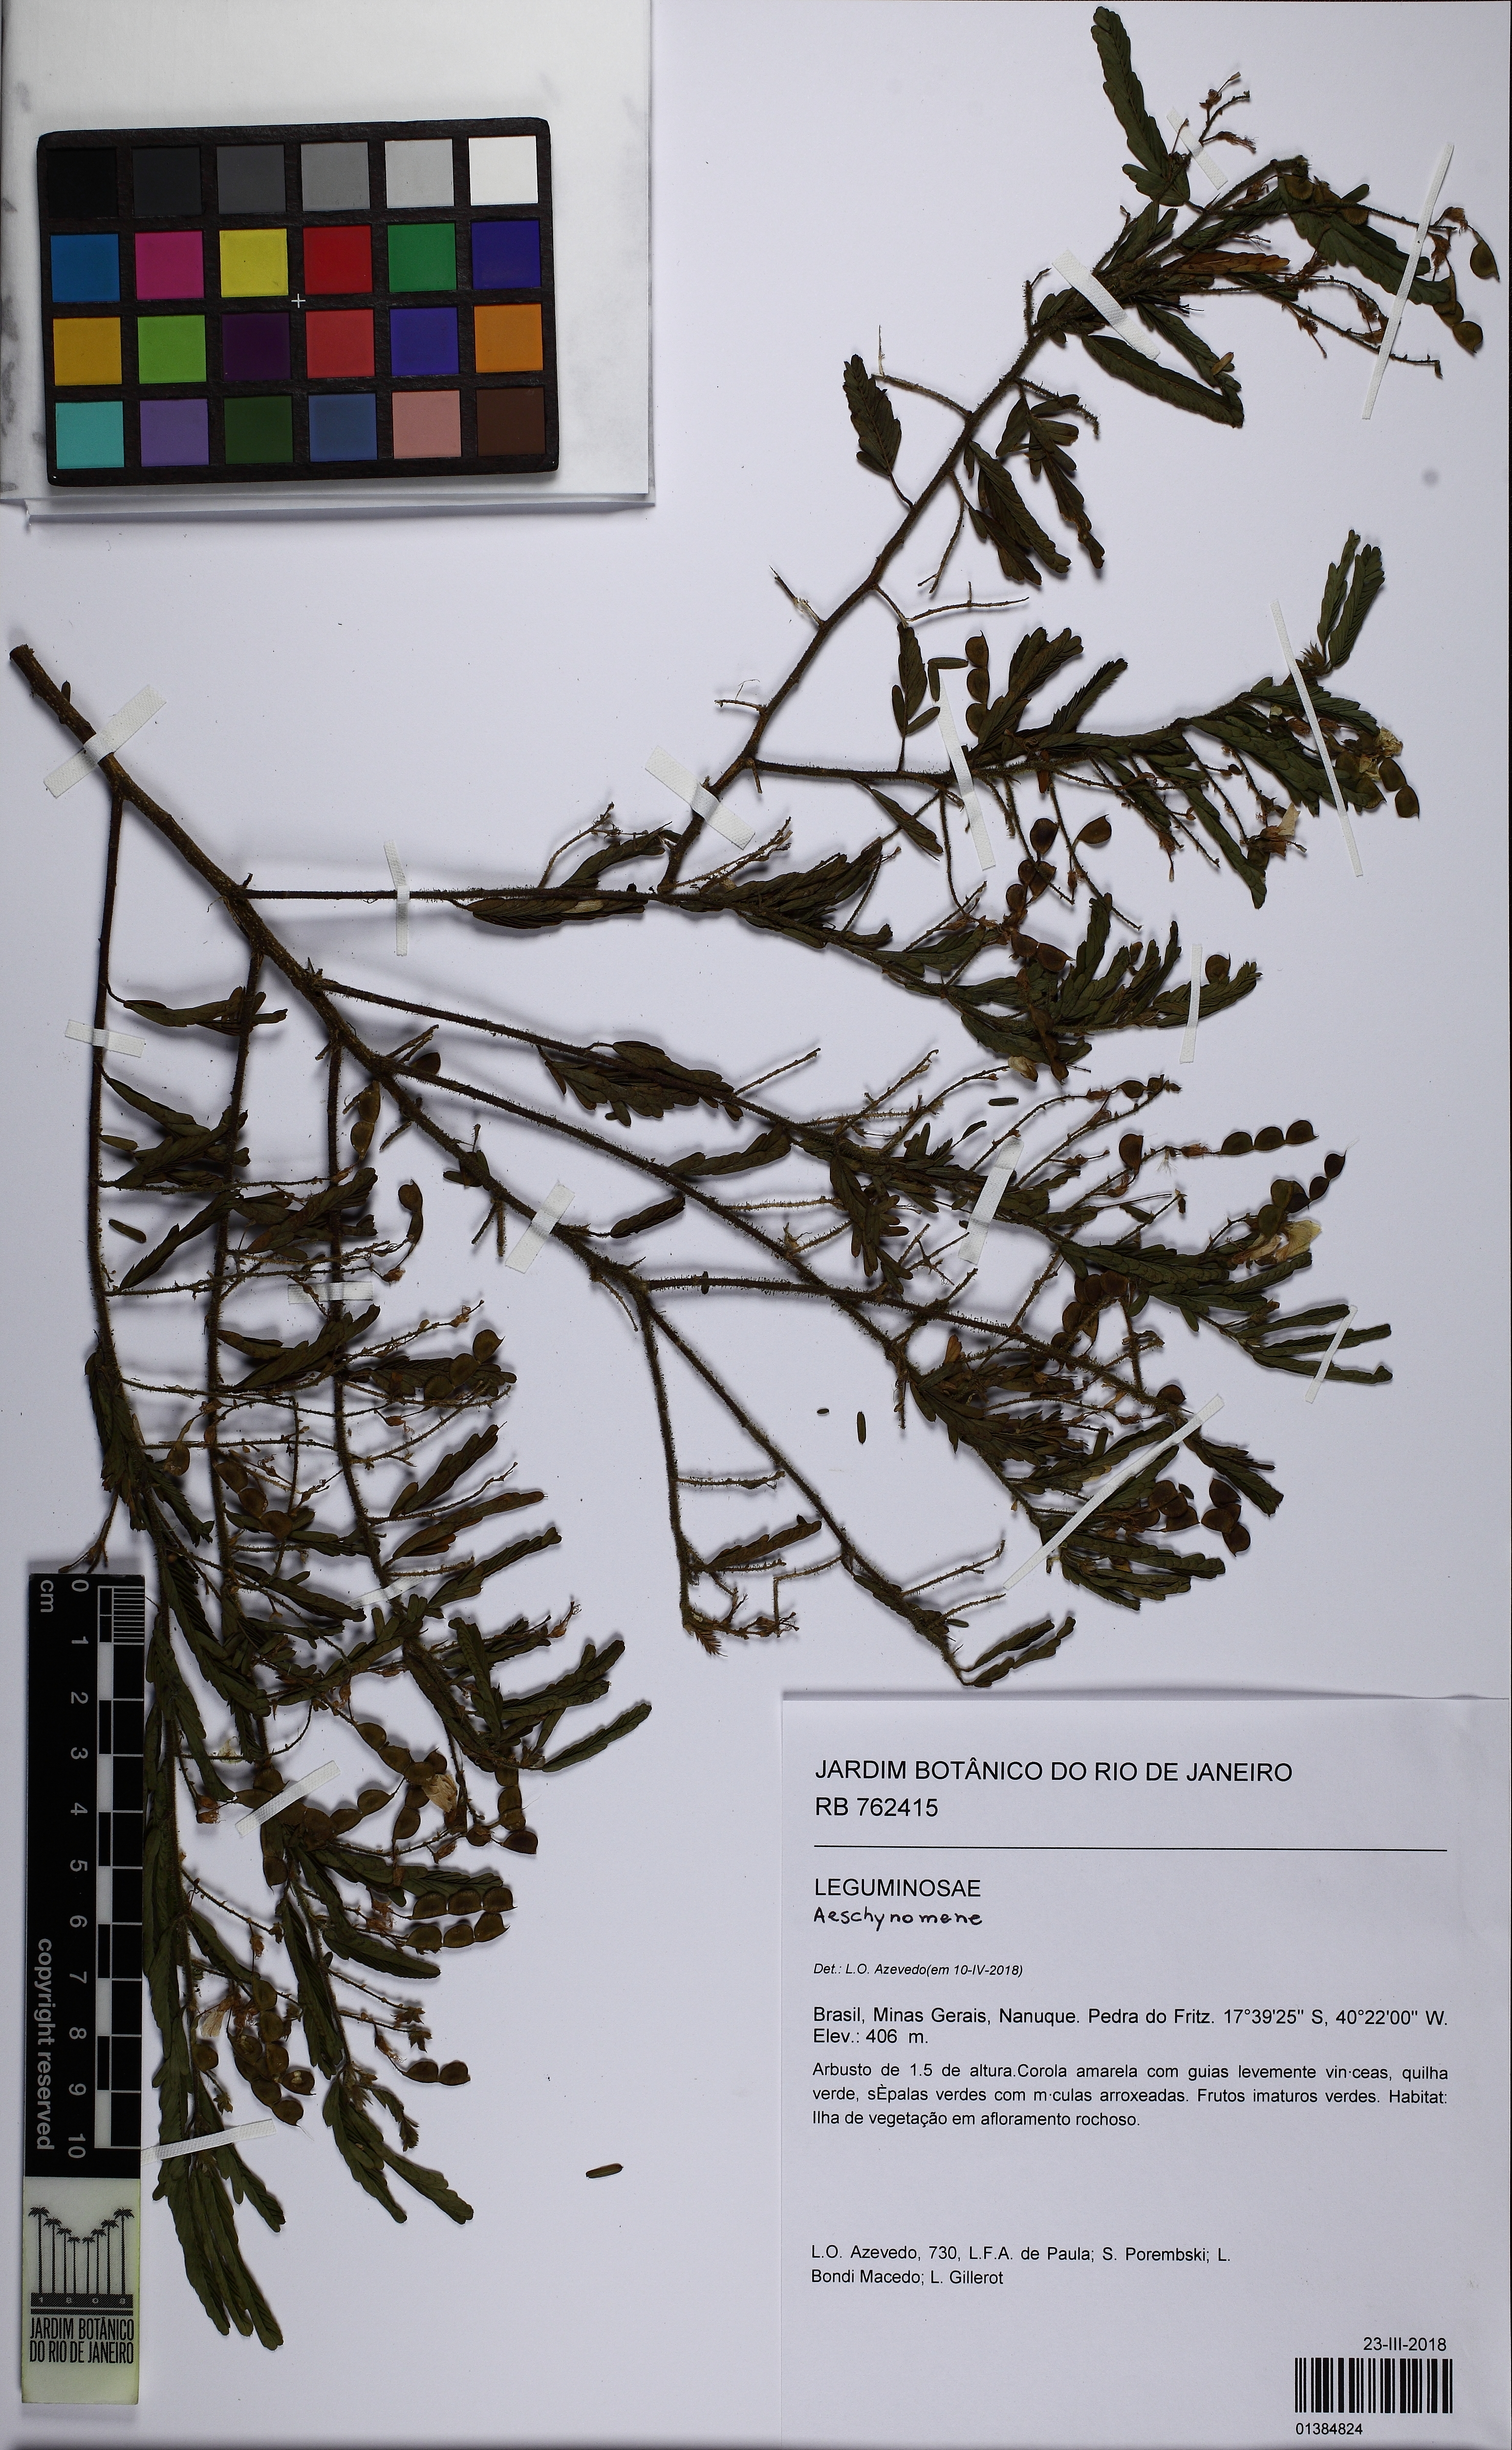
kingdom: Plantae
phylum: Tracheophyta
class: Magnoliopsida
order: Fabales
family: Fabaceae
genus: Aeschynomene
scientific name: Aeschynomene
